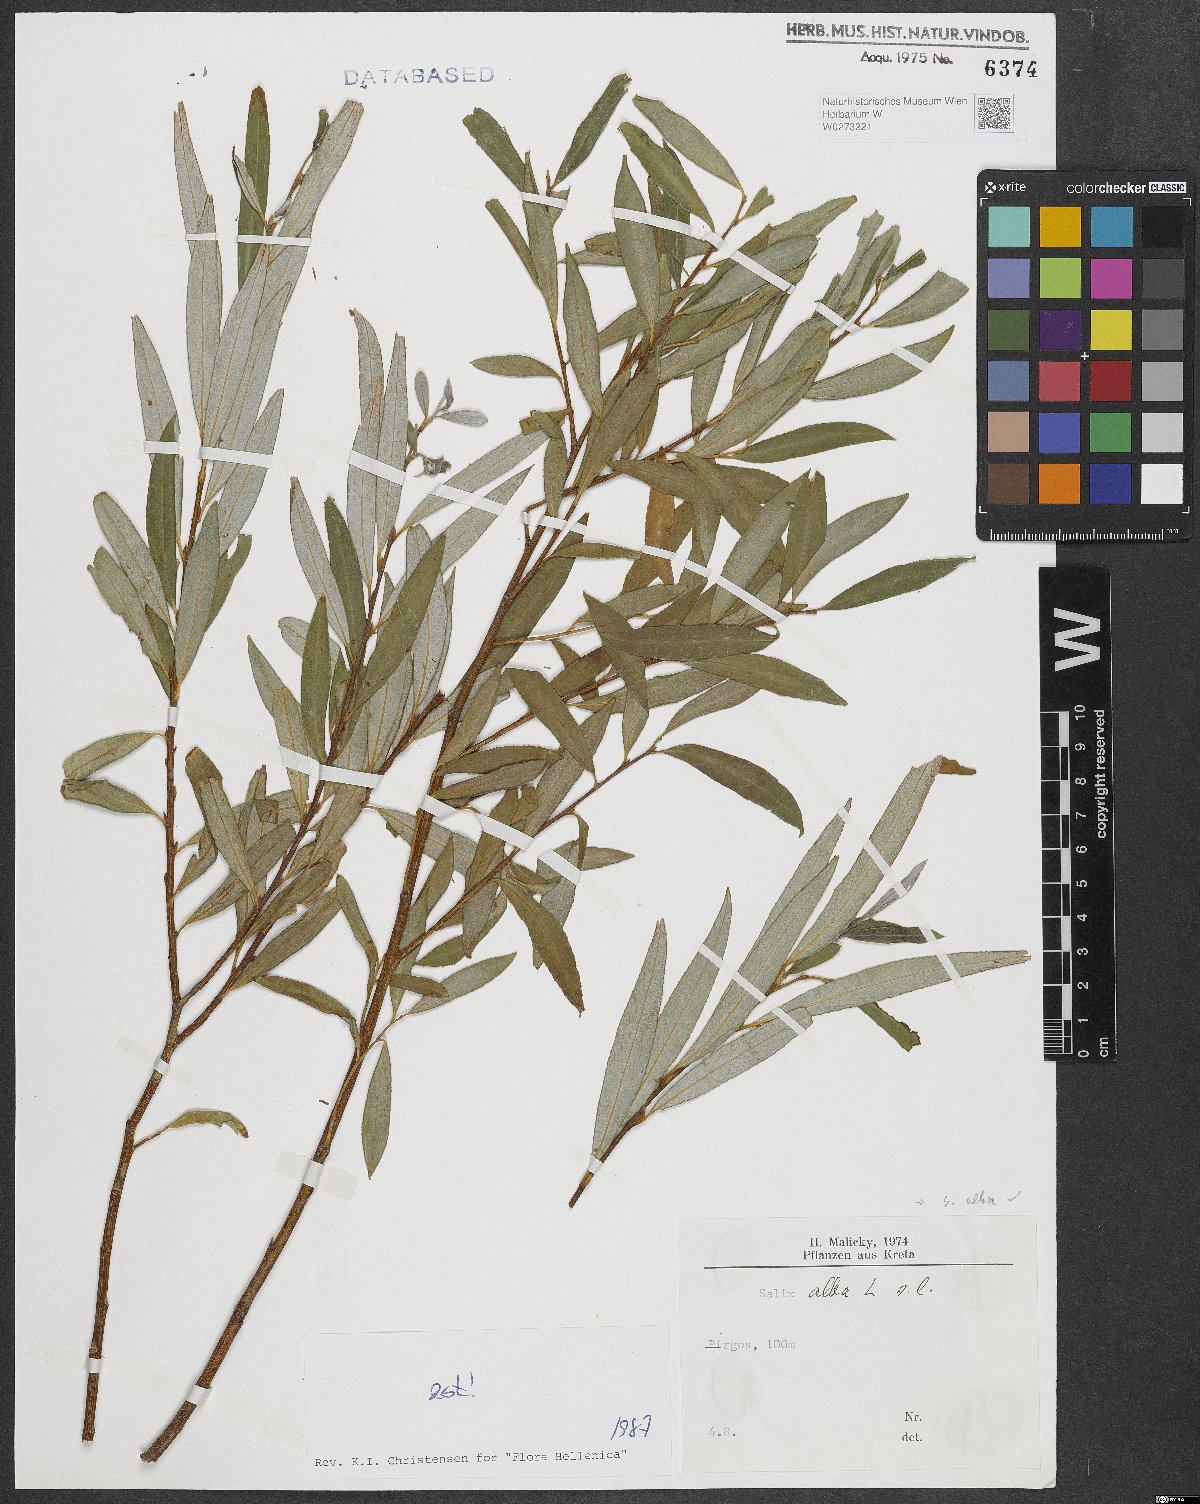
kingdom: Plantae
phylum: Tracheophyta
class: Magnoliopsida
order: Malpighiales
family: Salicaceae
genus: Salix
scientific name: Salix alba
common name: White willow
